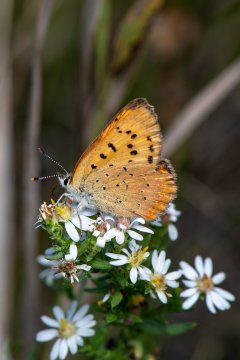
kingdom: Animalia
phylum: Arthropoda
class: Insecta
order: Lepidoptera
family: Sesiidae
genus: Sesia
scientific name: Sesia Lycaena helloides
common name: Purplish Copper
